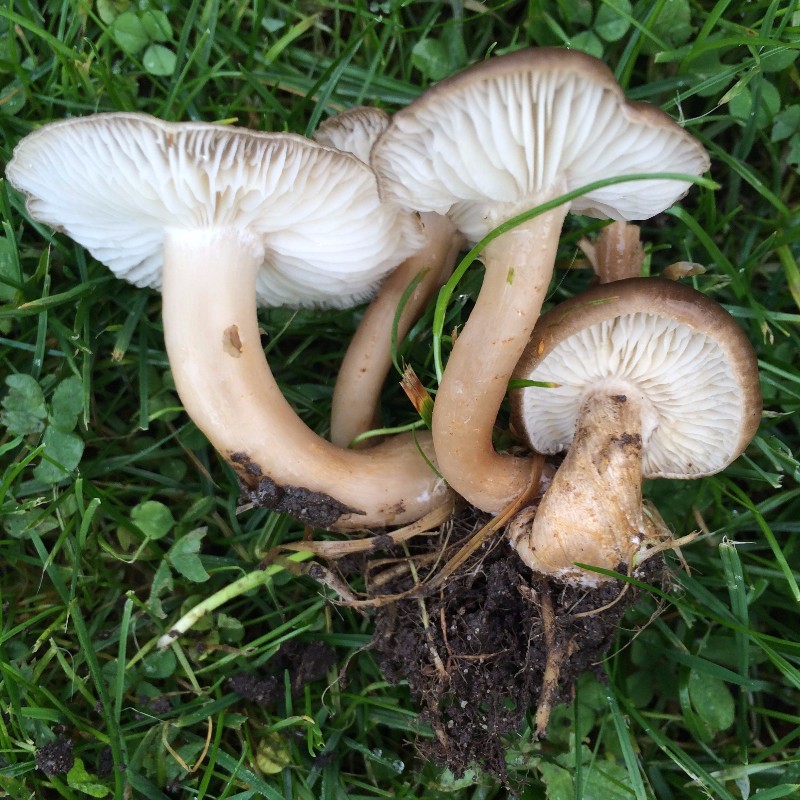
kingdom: Fungi
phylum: Basidiomycota
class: Agaricomycetes
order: Agaricales
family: Lyophyllaceae
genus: Lyophyllum
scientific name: Lyophyllum decastes
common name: røggrå gråblad
